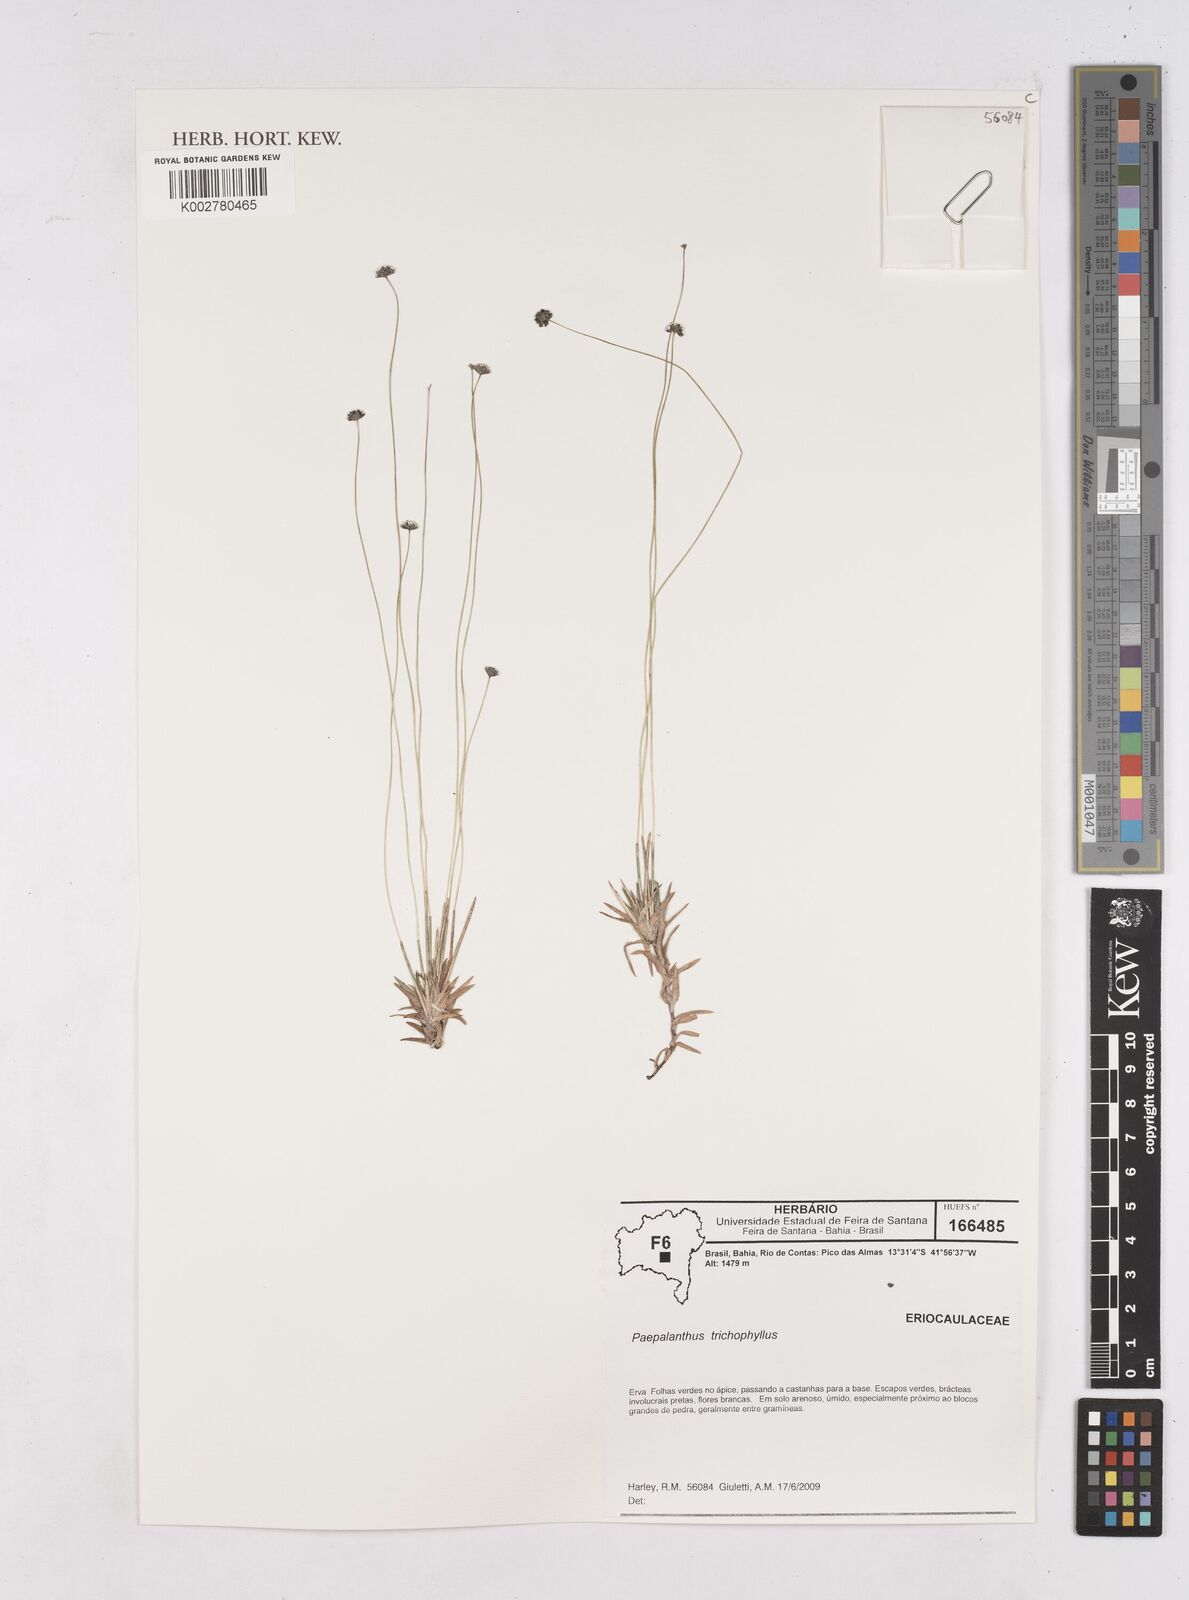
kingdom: Plantae
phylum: Tracheophyta
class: Liliopsida
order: Poales
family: Eriocaulaceae
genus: Paepalanthus
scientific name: Paepalanthus trichophyllus
